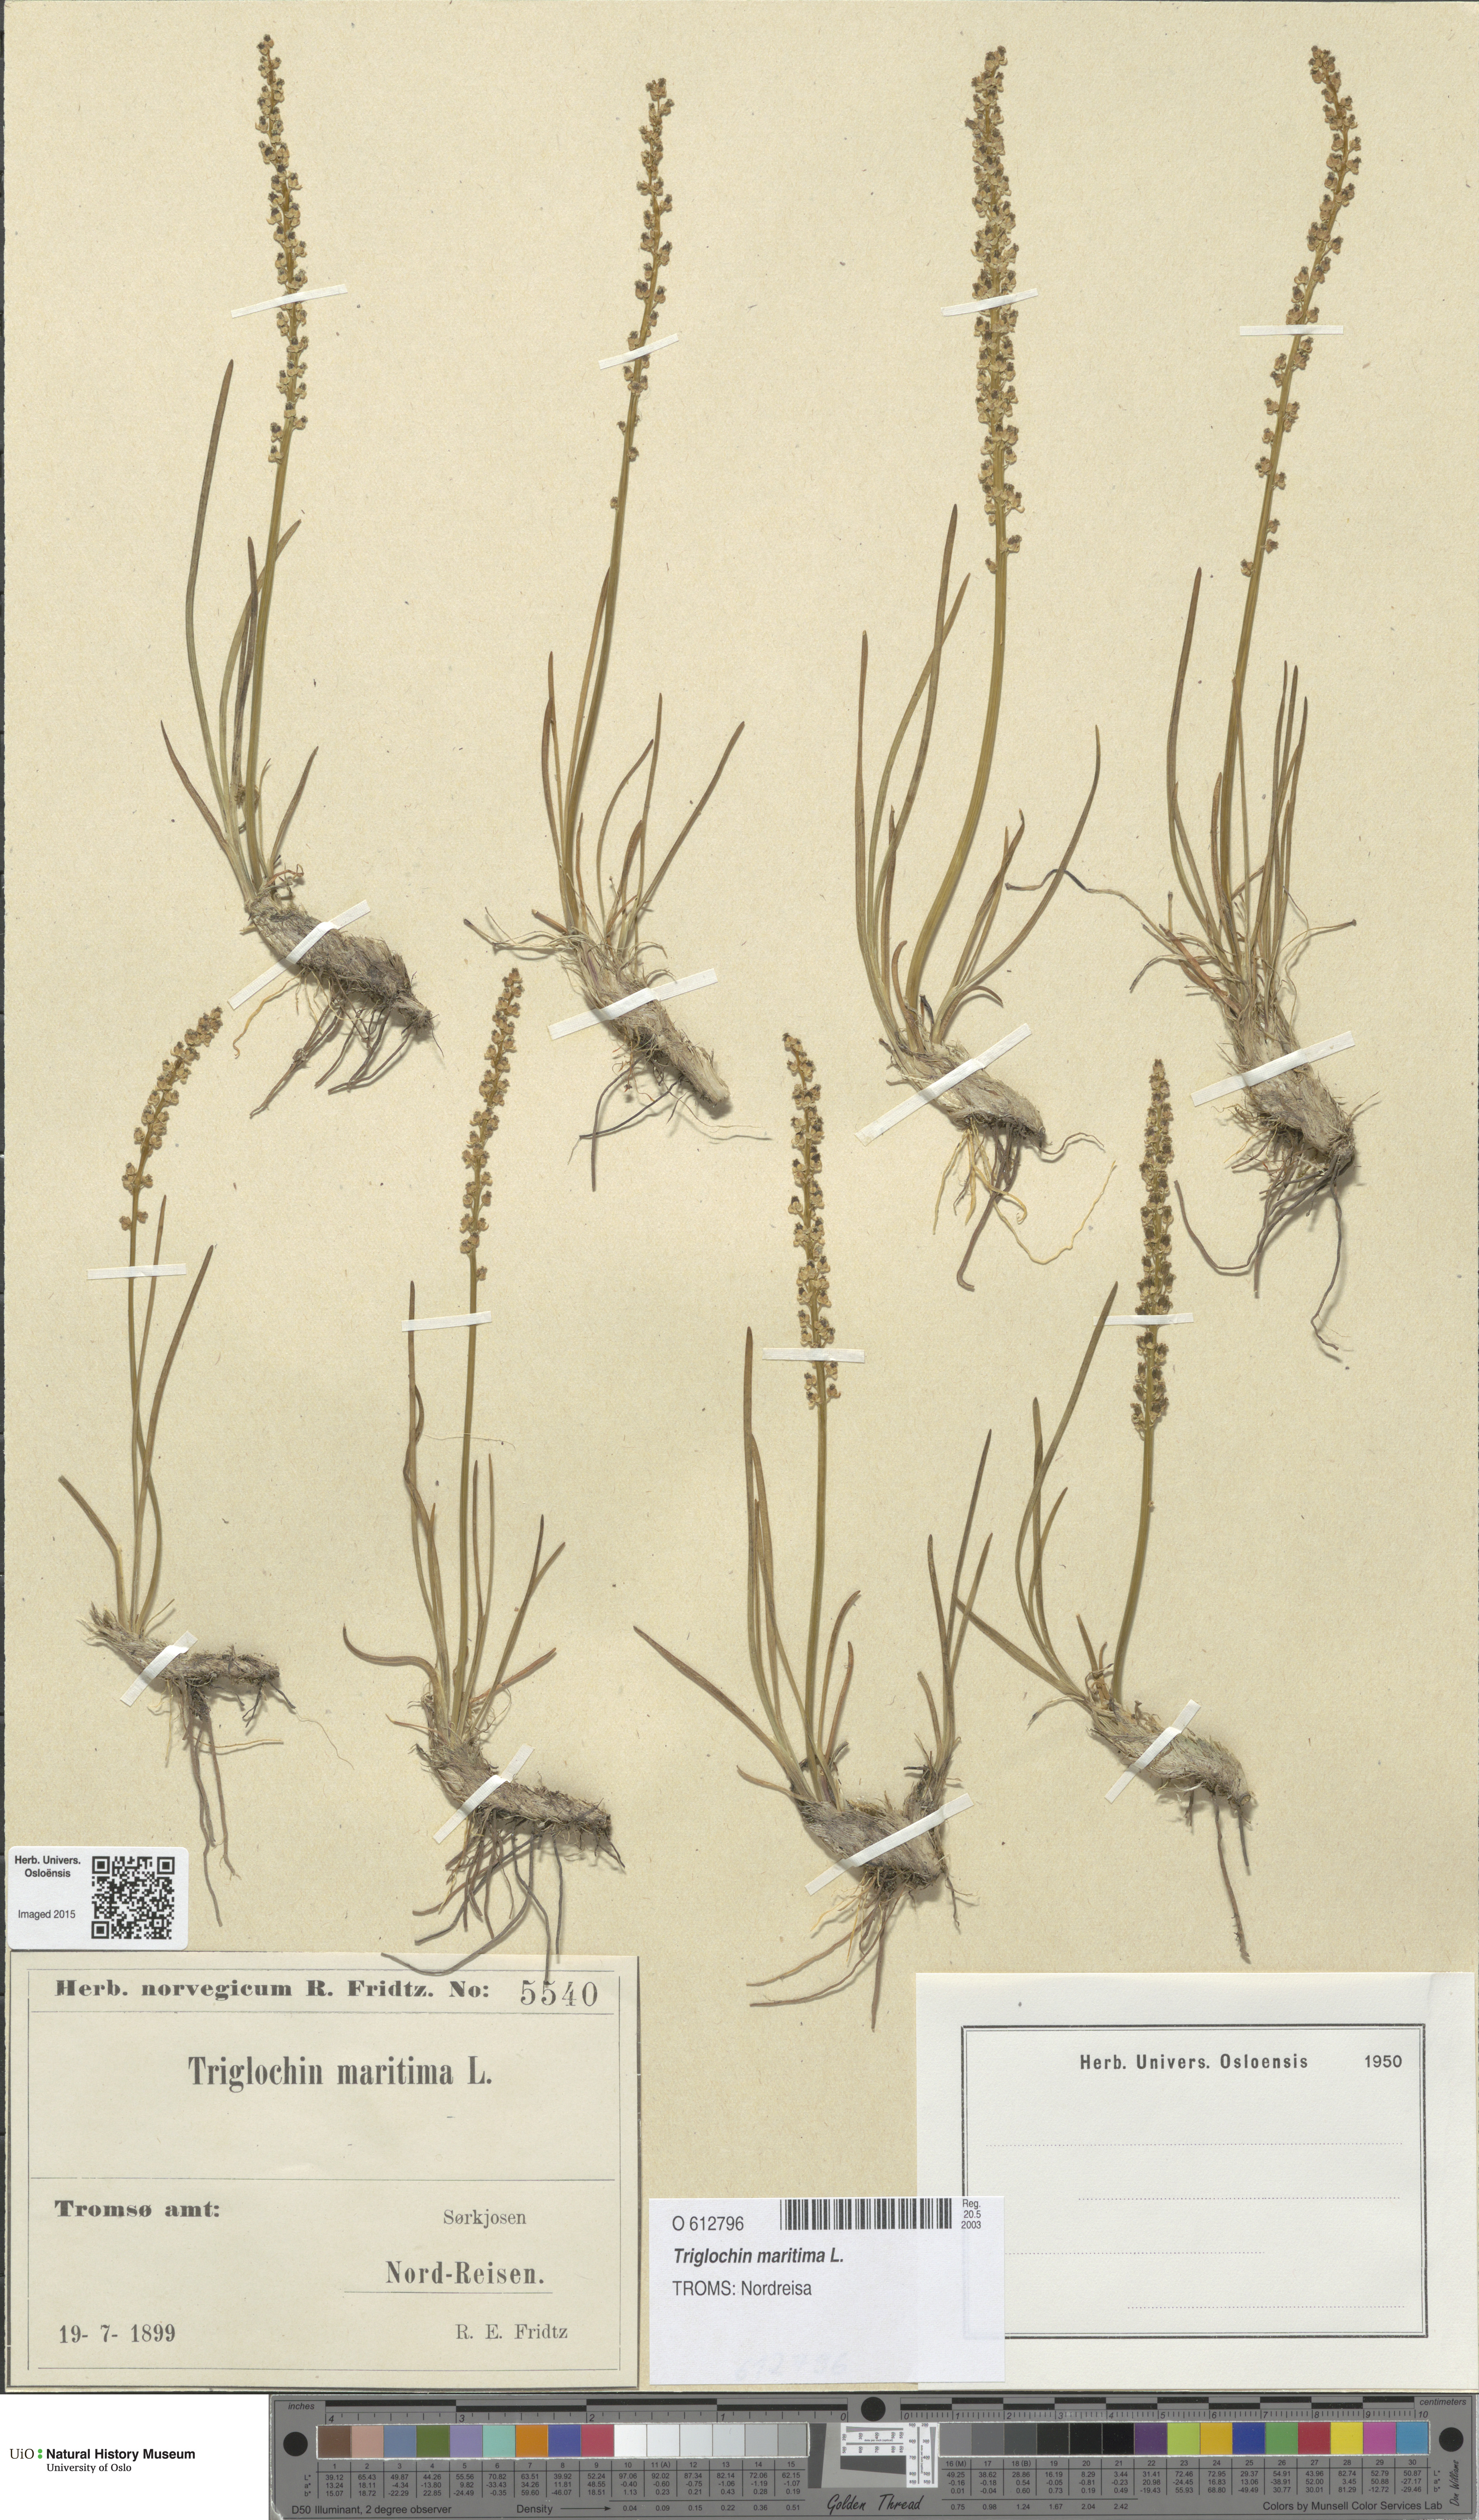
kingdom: Plantae
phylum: Tracheophyta
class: Liliopsida
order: Alismatales
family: Juncaginaceae
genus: Triglochin
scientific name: Triglochin maritima
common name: Sea arrowgrass
